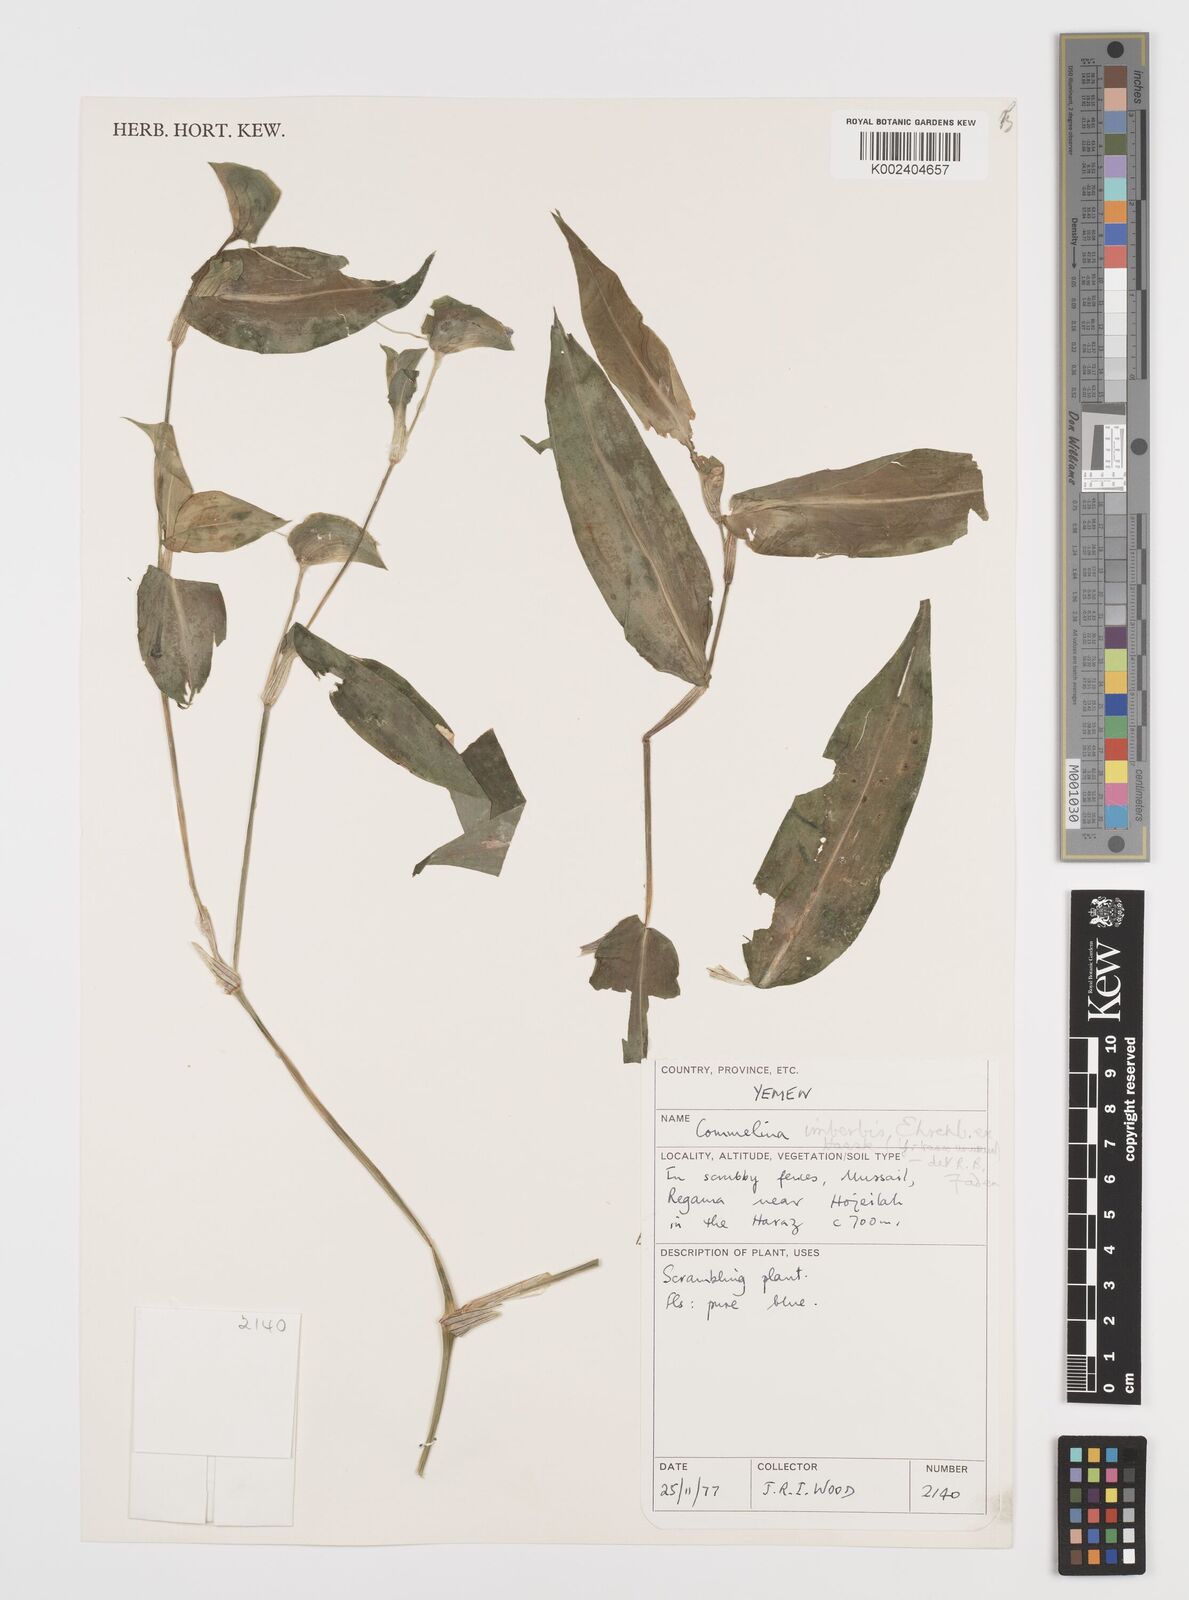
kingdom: Plantae
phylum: Tracheophyta
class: Liliopsida
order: Commelinales
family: Commelinaceae
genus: Commelina
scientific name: Commelina imberbis
